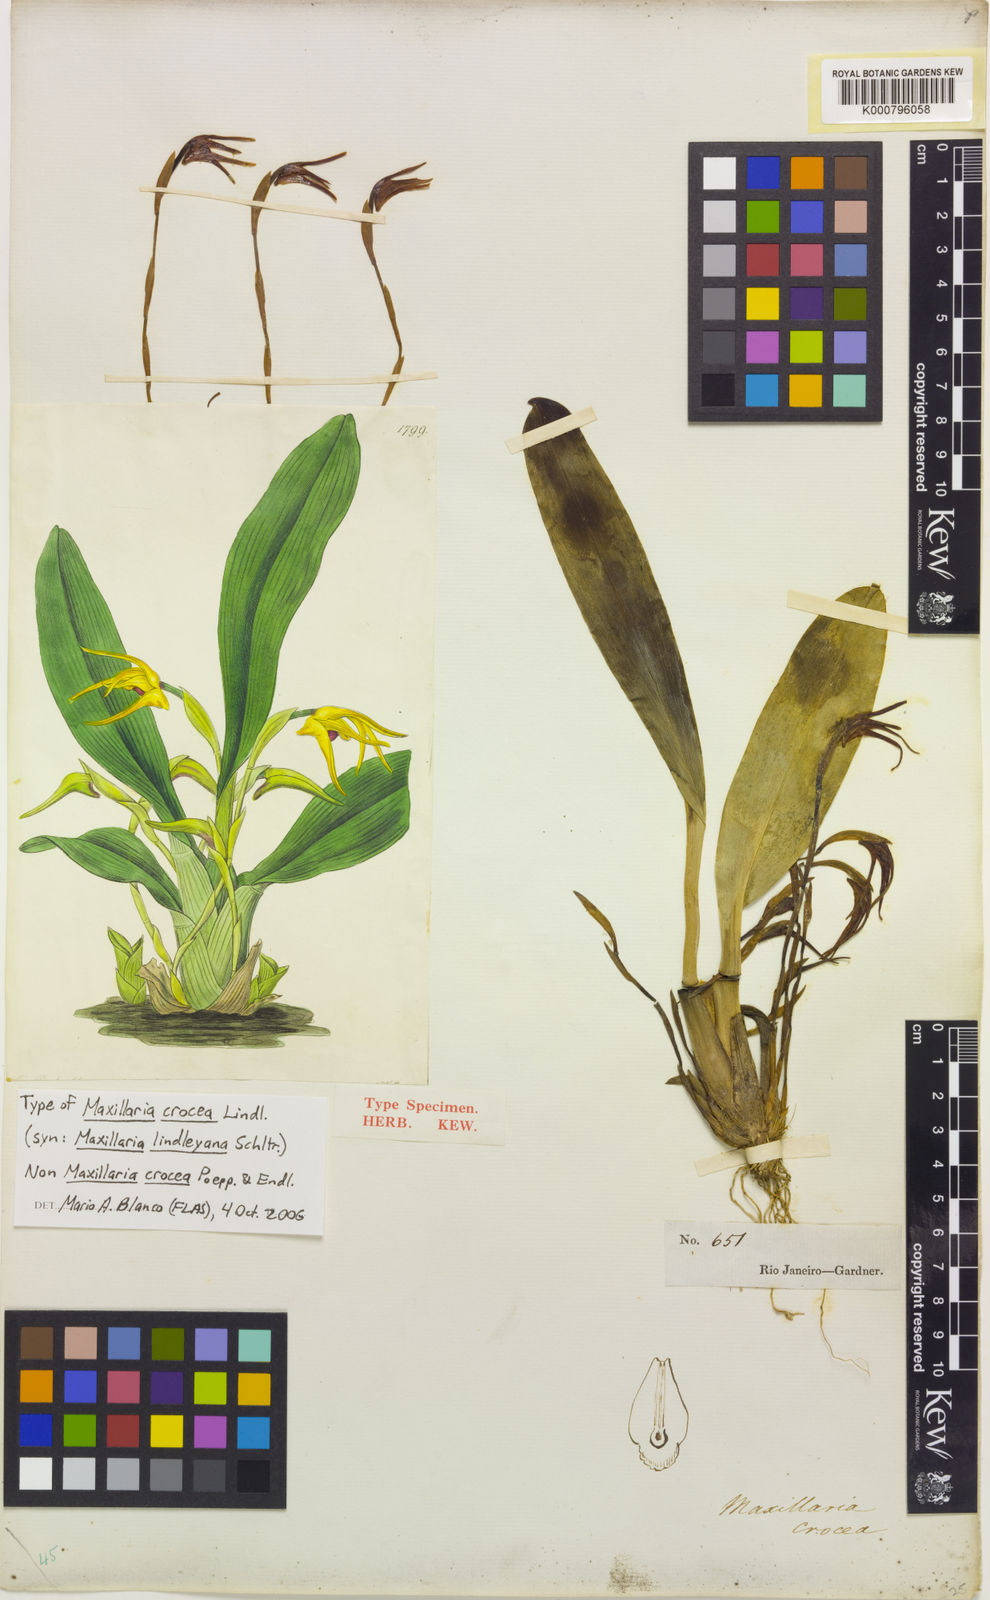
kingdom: Plantae
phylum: Tracheophyta
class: Liliopsida
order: Asparagales
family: Orchidaceae
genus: Maxillaria
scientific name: Maxillaria crocea
